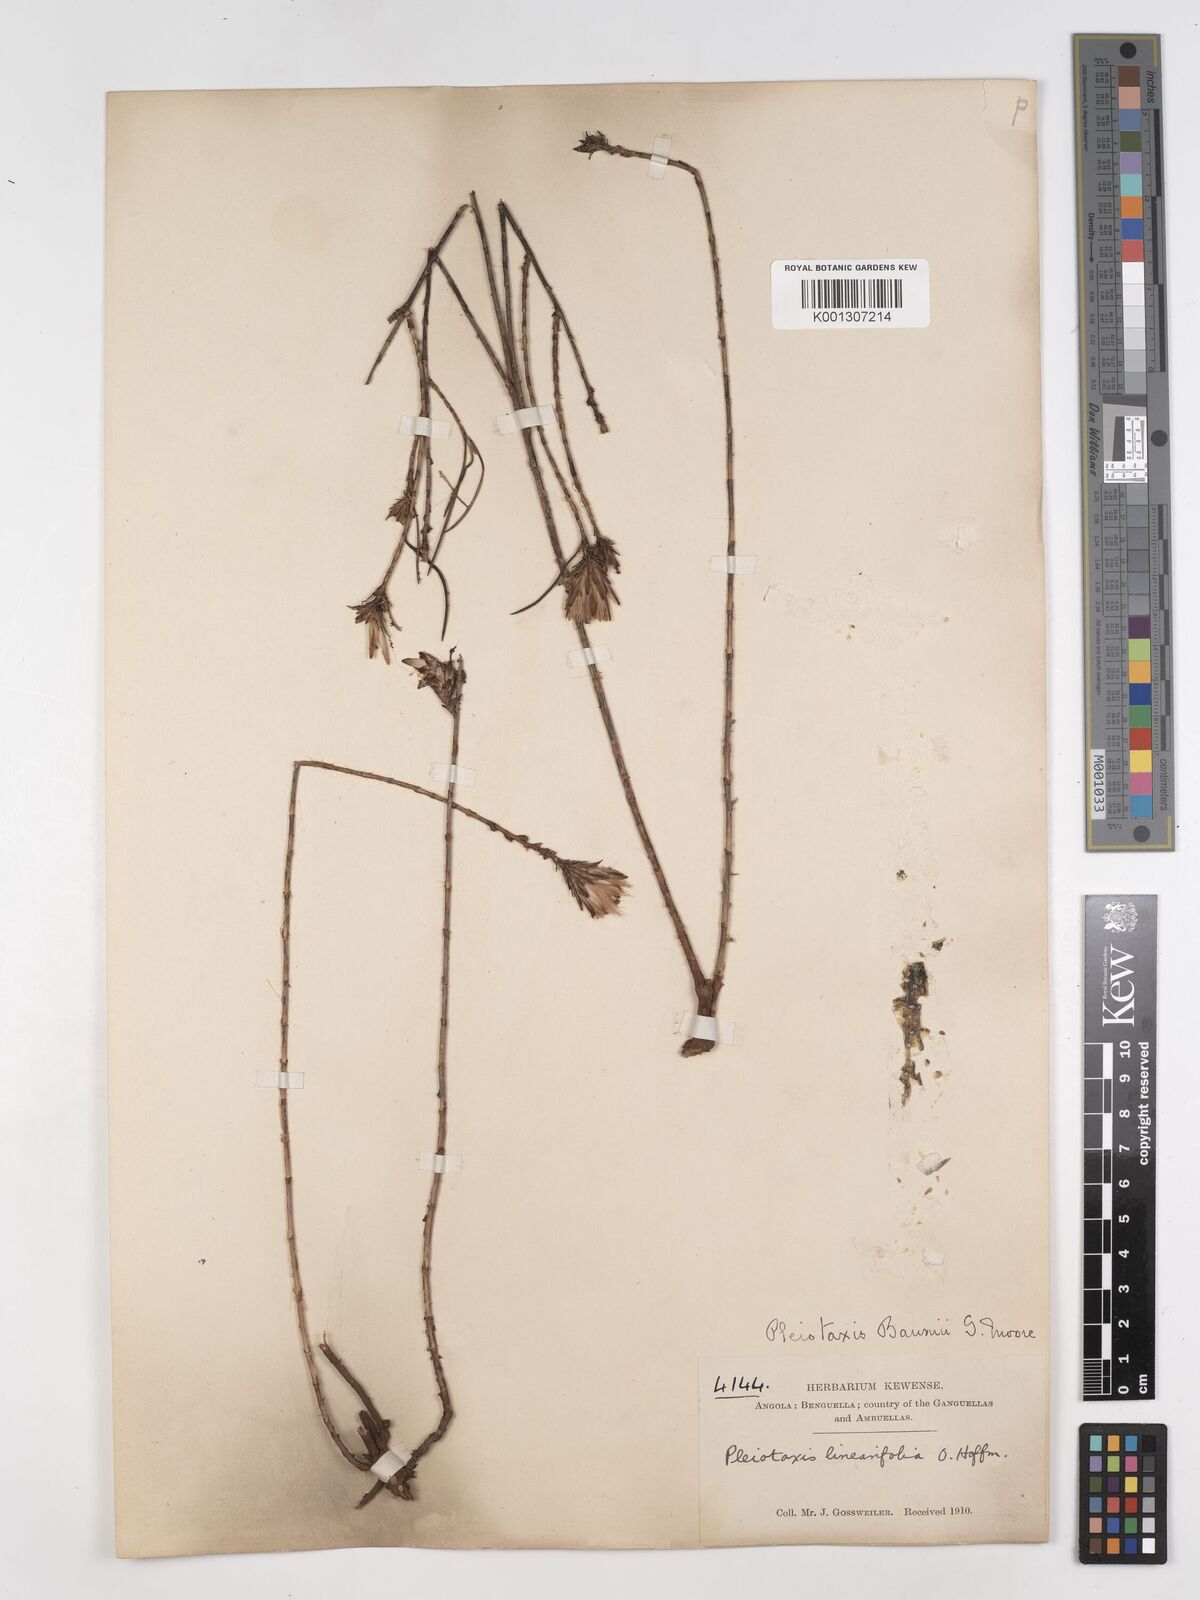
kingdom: Plantae
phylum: Tracheophyta
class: Magnoliopsida
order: Asterales
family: Asteraceae
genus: Pleiotaxis
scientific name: Pleiotaxis
